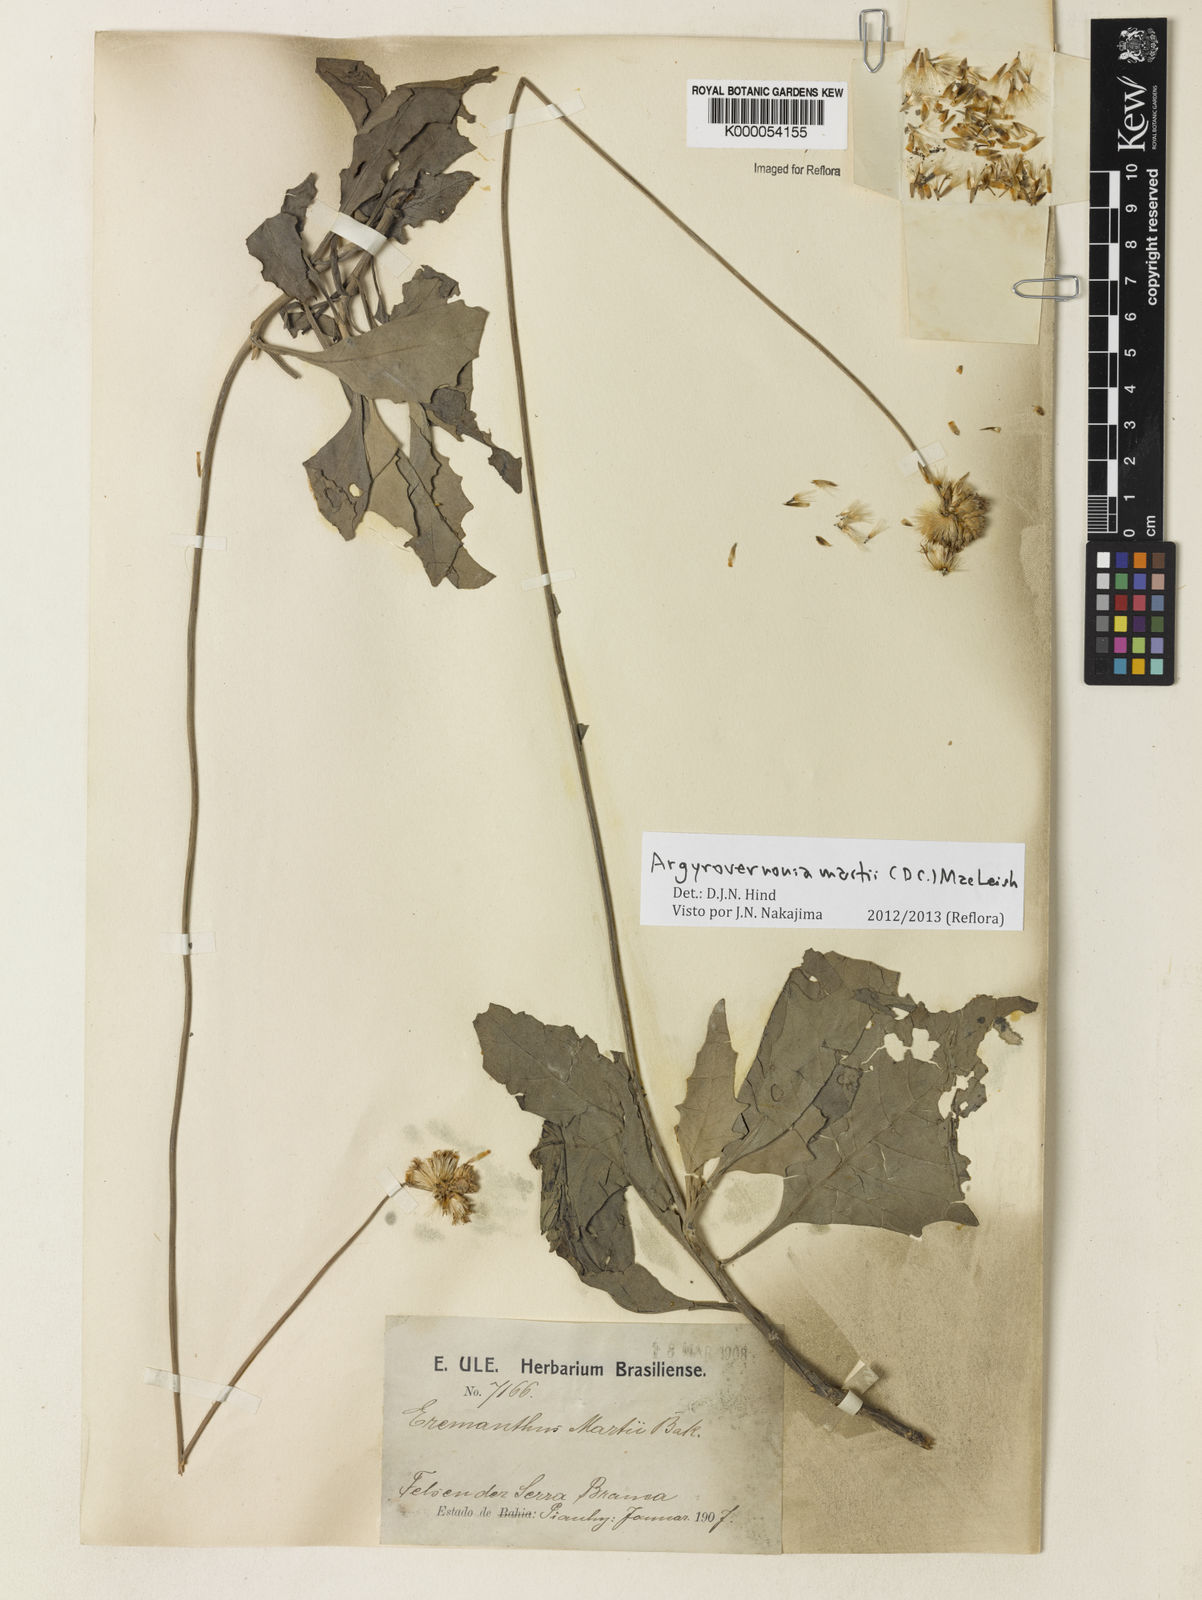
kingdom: Plantae
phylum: Tracheophyta
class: Magnoliopsida
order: Asterales
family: Asteraceae
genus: Chresta
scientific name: Chresta martii
